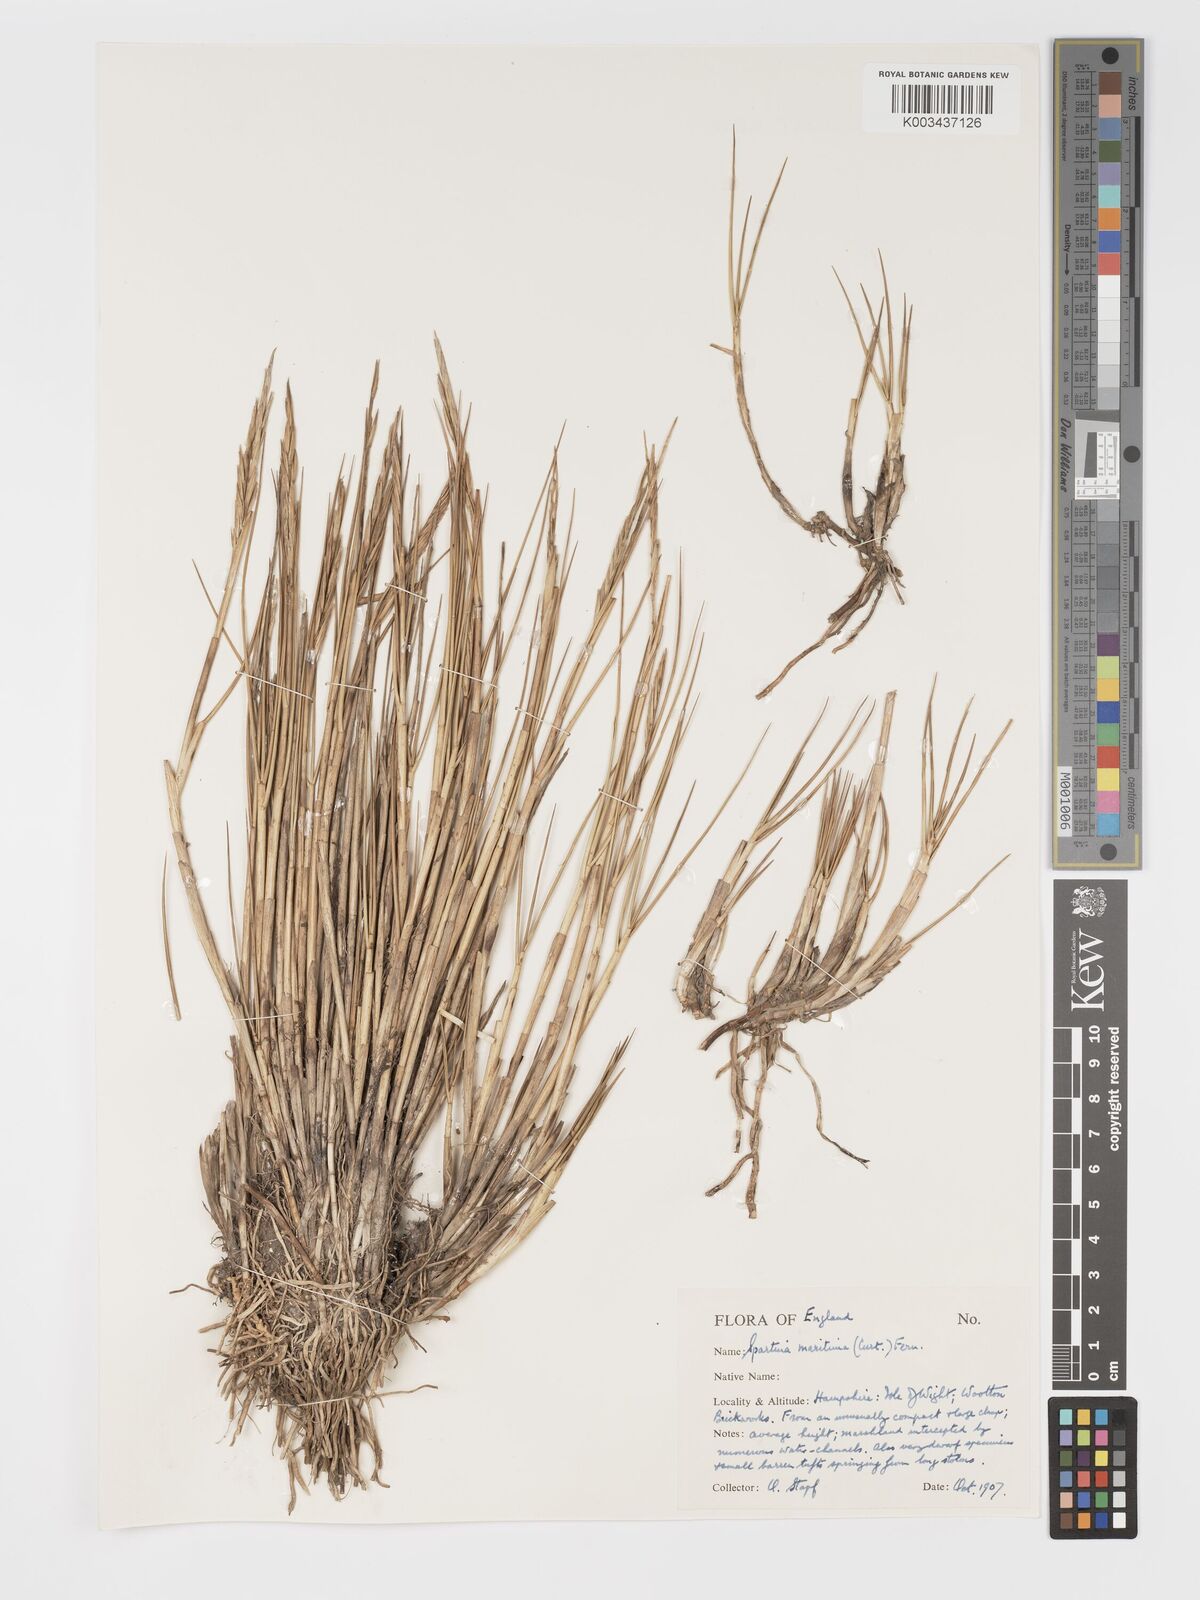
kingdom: Plantae
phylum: Tracheophyta
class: Liliopsida
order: Poales
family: Poaceae
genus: Sporobolus
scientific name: Sporobolus maritimus
